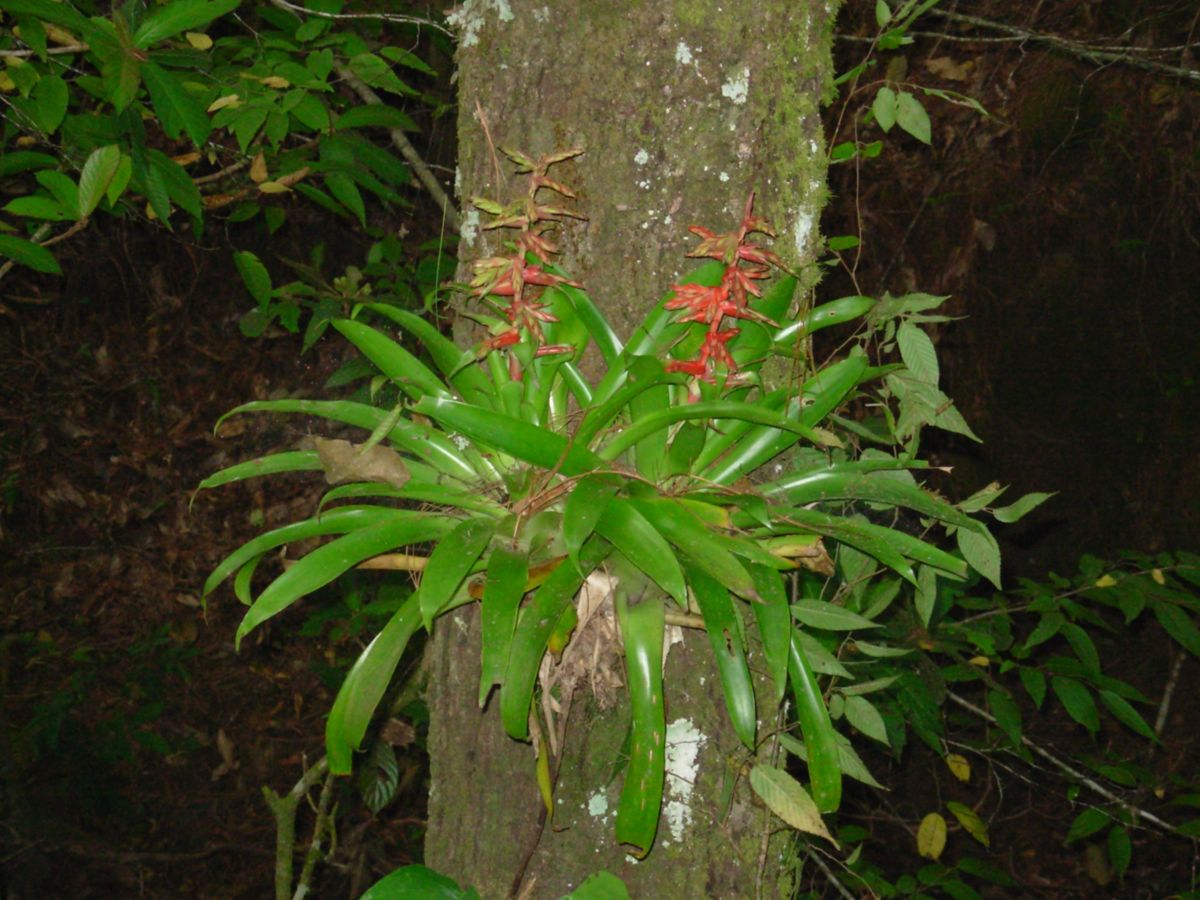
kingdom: Plantae
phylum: Tracheophyta
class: Liliopsida
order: Poales
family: Bromeliaceae
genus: Tillandsia
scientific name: Tillandsia guatemalensis
